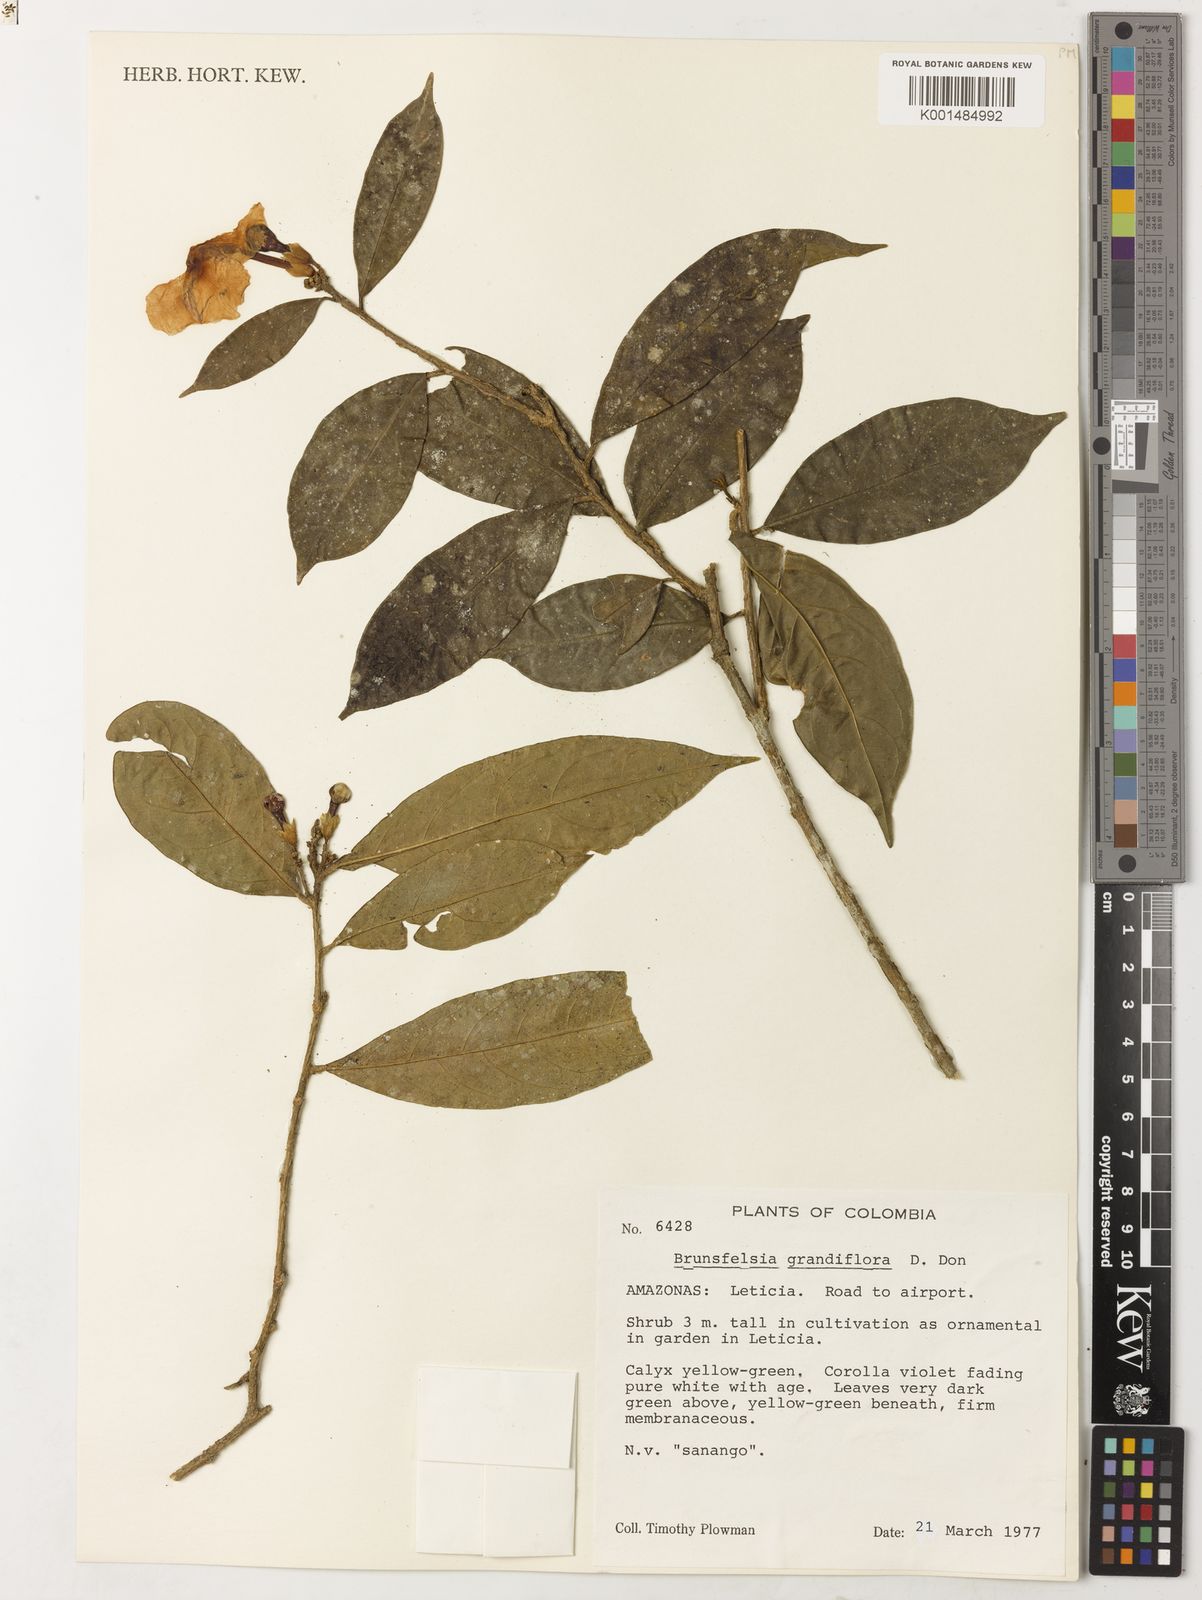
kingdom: Plantae
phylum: Tracheophyta
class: Magnoliopsida
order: Solanales
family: Solanaceae
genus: Brunfelsia
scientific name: Brunfelsia grandiflora
